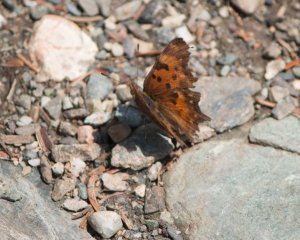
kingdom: Animalia
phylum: Arthropoda
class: Insecta
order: Lepidoptera
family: Nymphalidae
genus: Polygonia
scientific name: Polygonia progne
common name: Gray Comma
